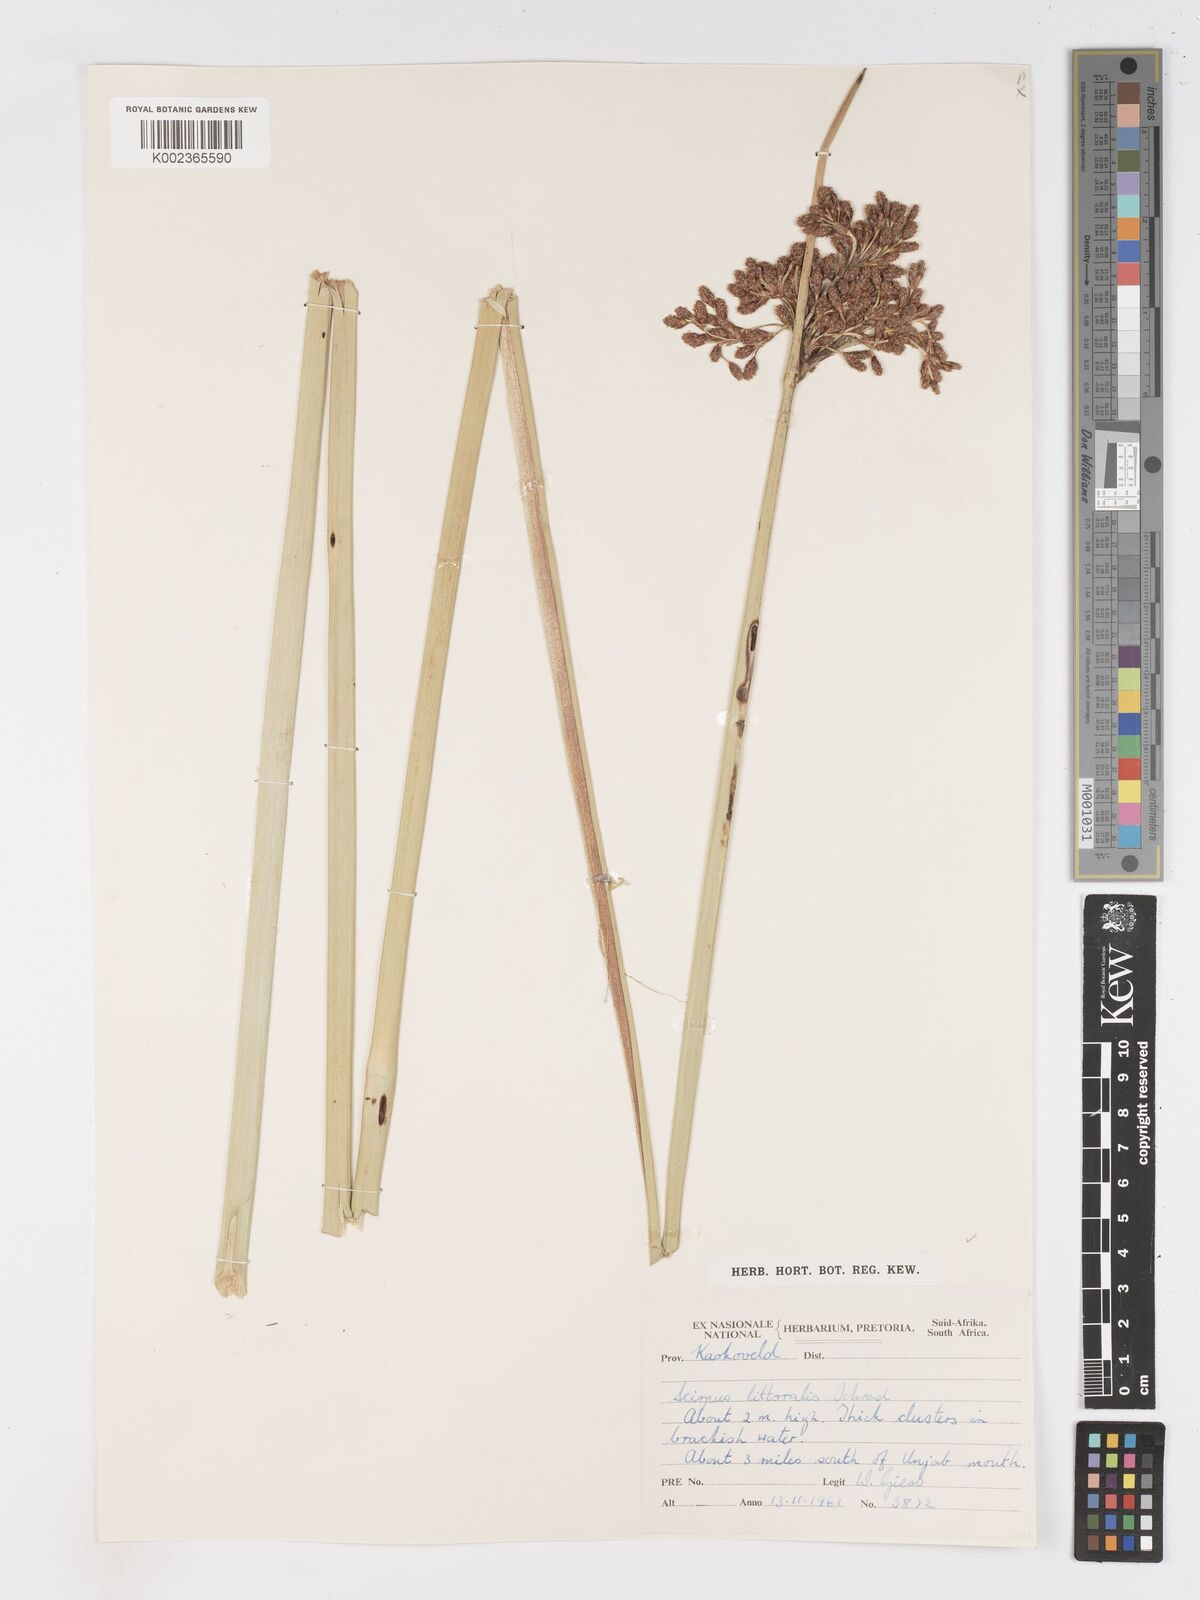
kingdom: Plantae
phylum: Tracheophyta
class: Liliopsida
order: Poales
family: Cyperaceae
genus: Schoenoplectus
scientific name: Schoenoplectus
